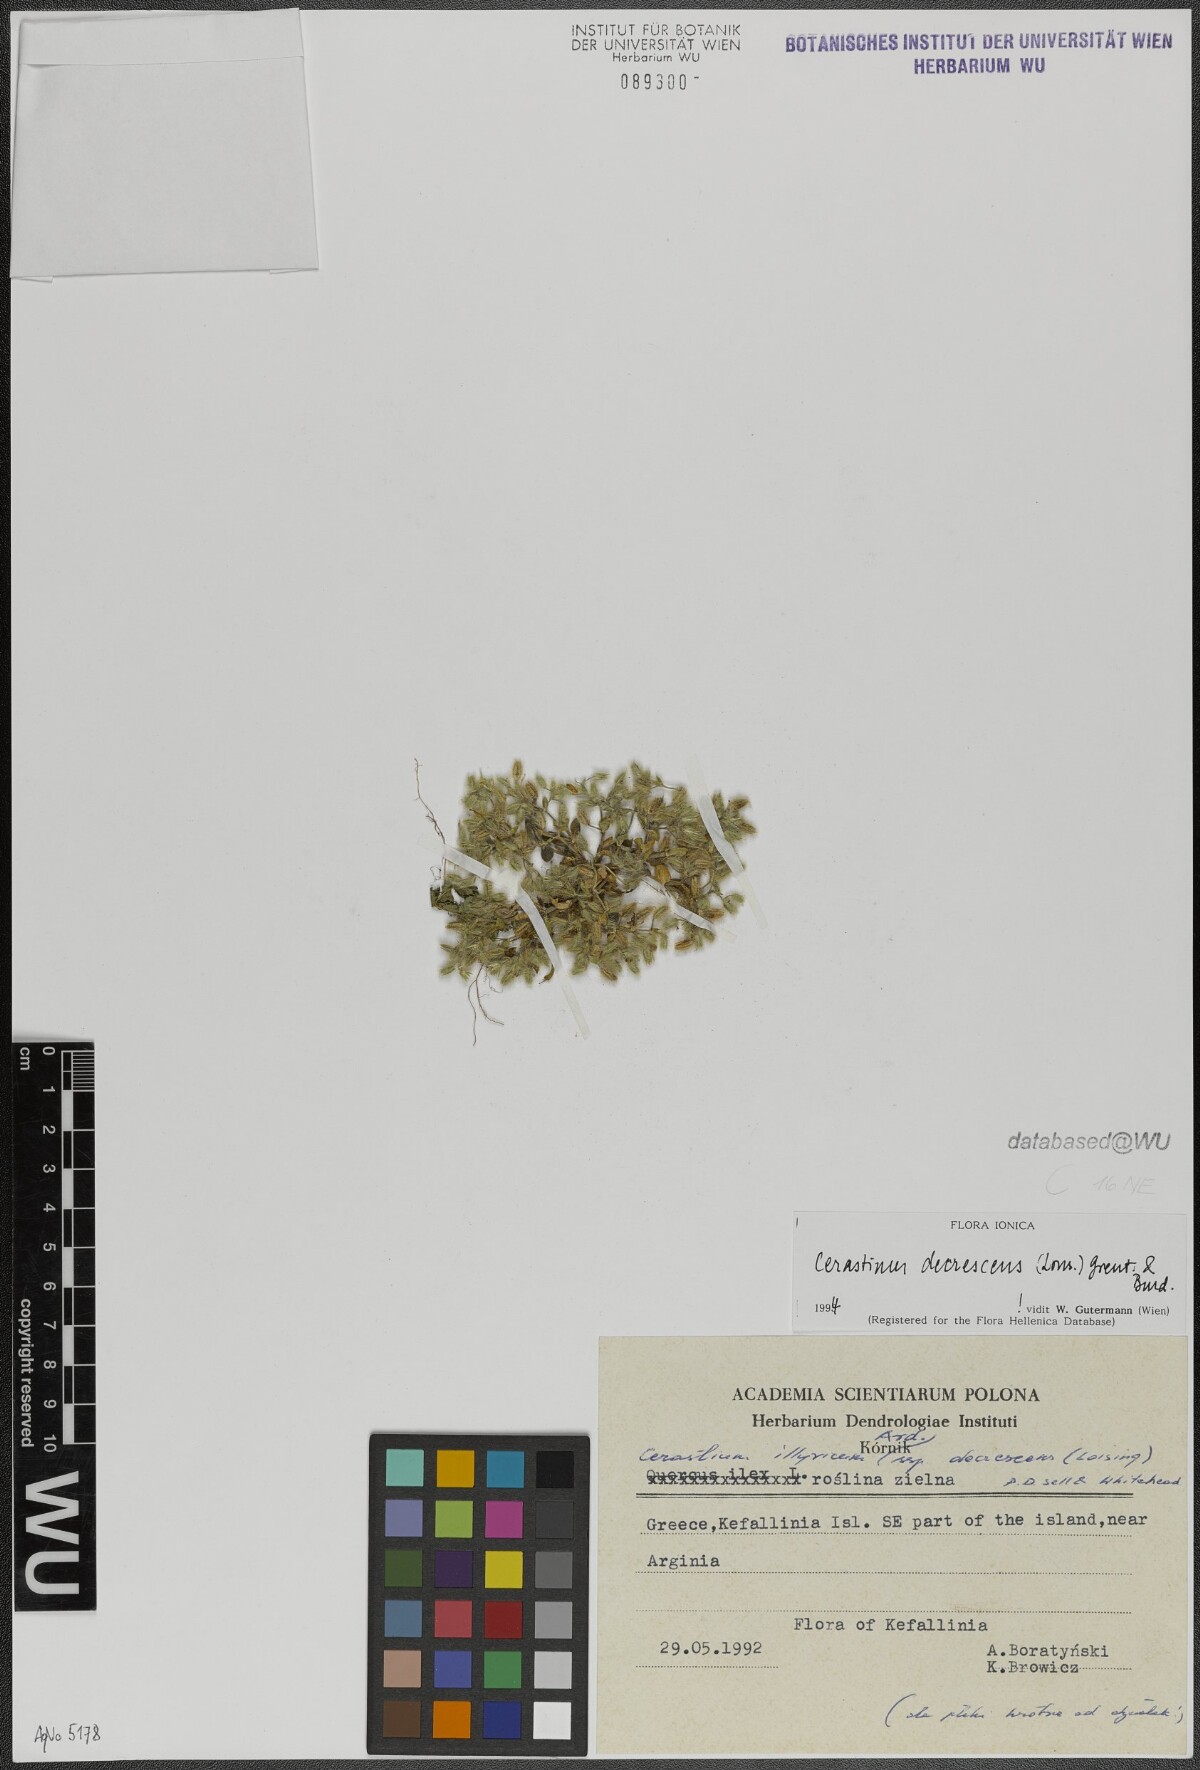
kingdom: Plantae
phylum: Tracheophyta
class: Magnoliopsida
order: Caryophyllales
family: Caryophyllaceae
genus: Cerastium
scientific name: Cerastium illyricum
